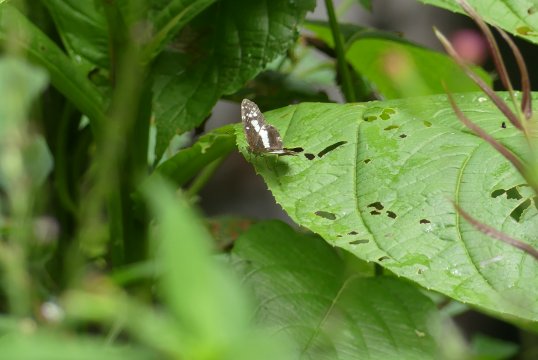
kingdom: Animalia
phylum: Arthropoda
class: Insecta
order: Lepidoptera
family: Nymphalidae
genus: Castilia
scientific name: Castilia ofella
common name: White-dotted Crescent
